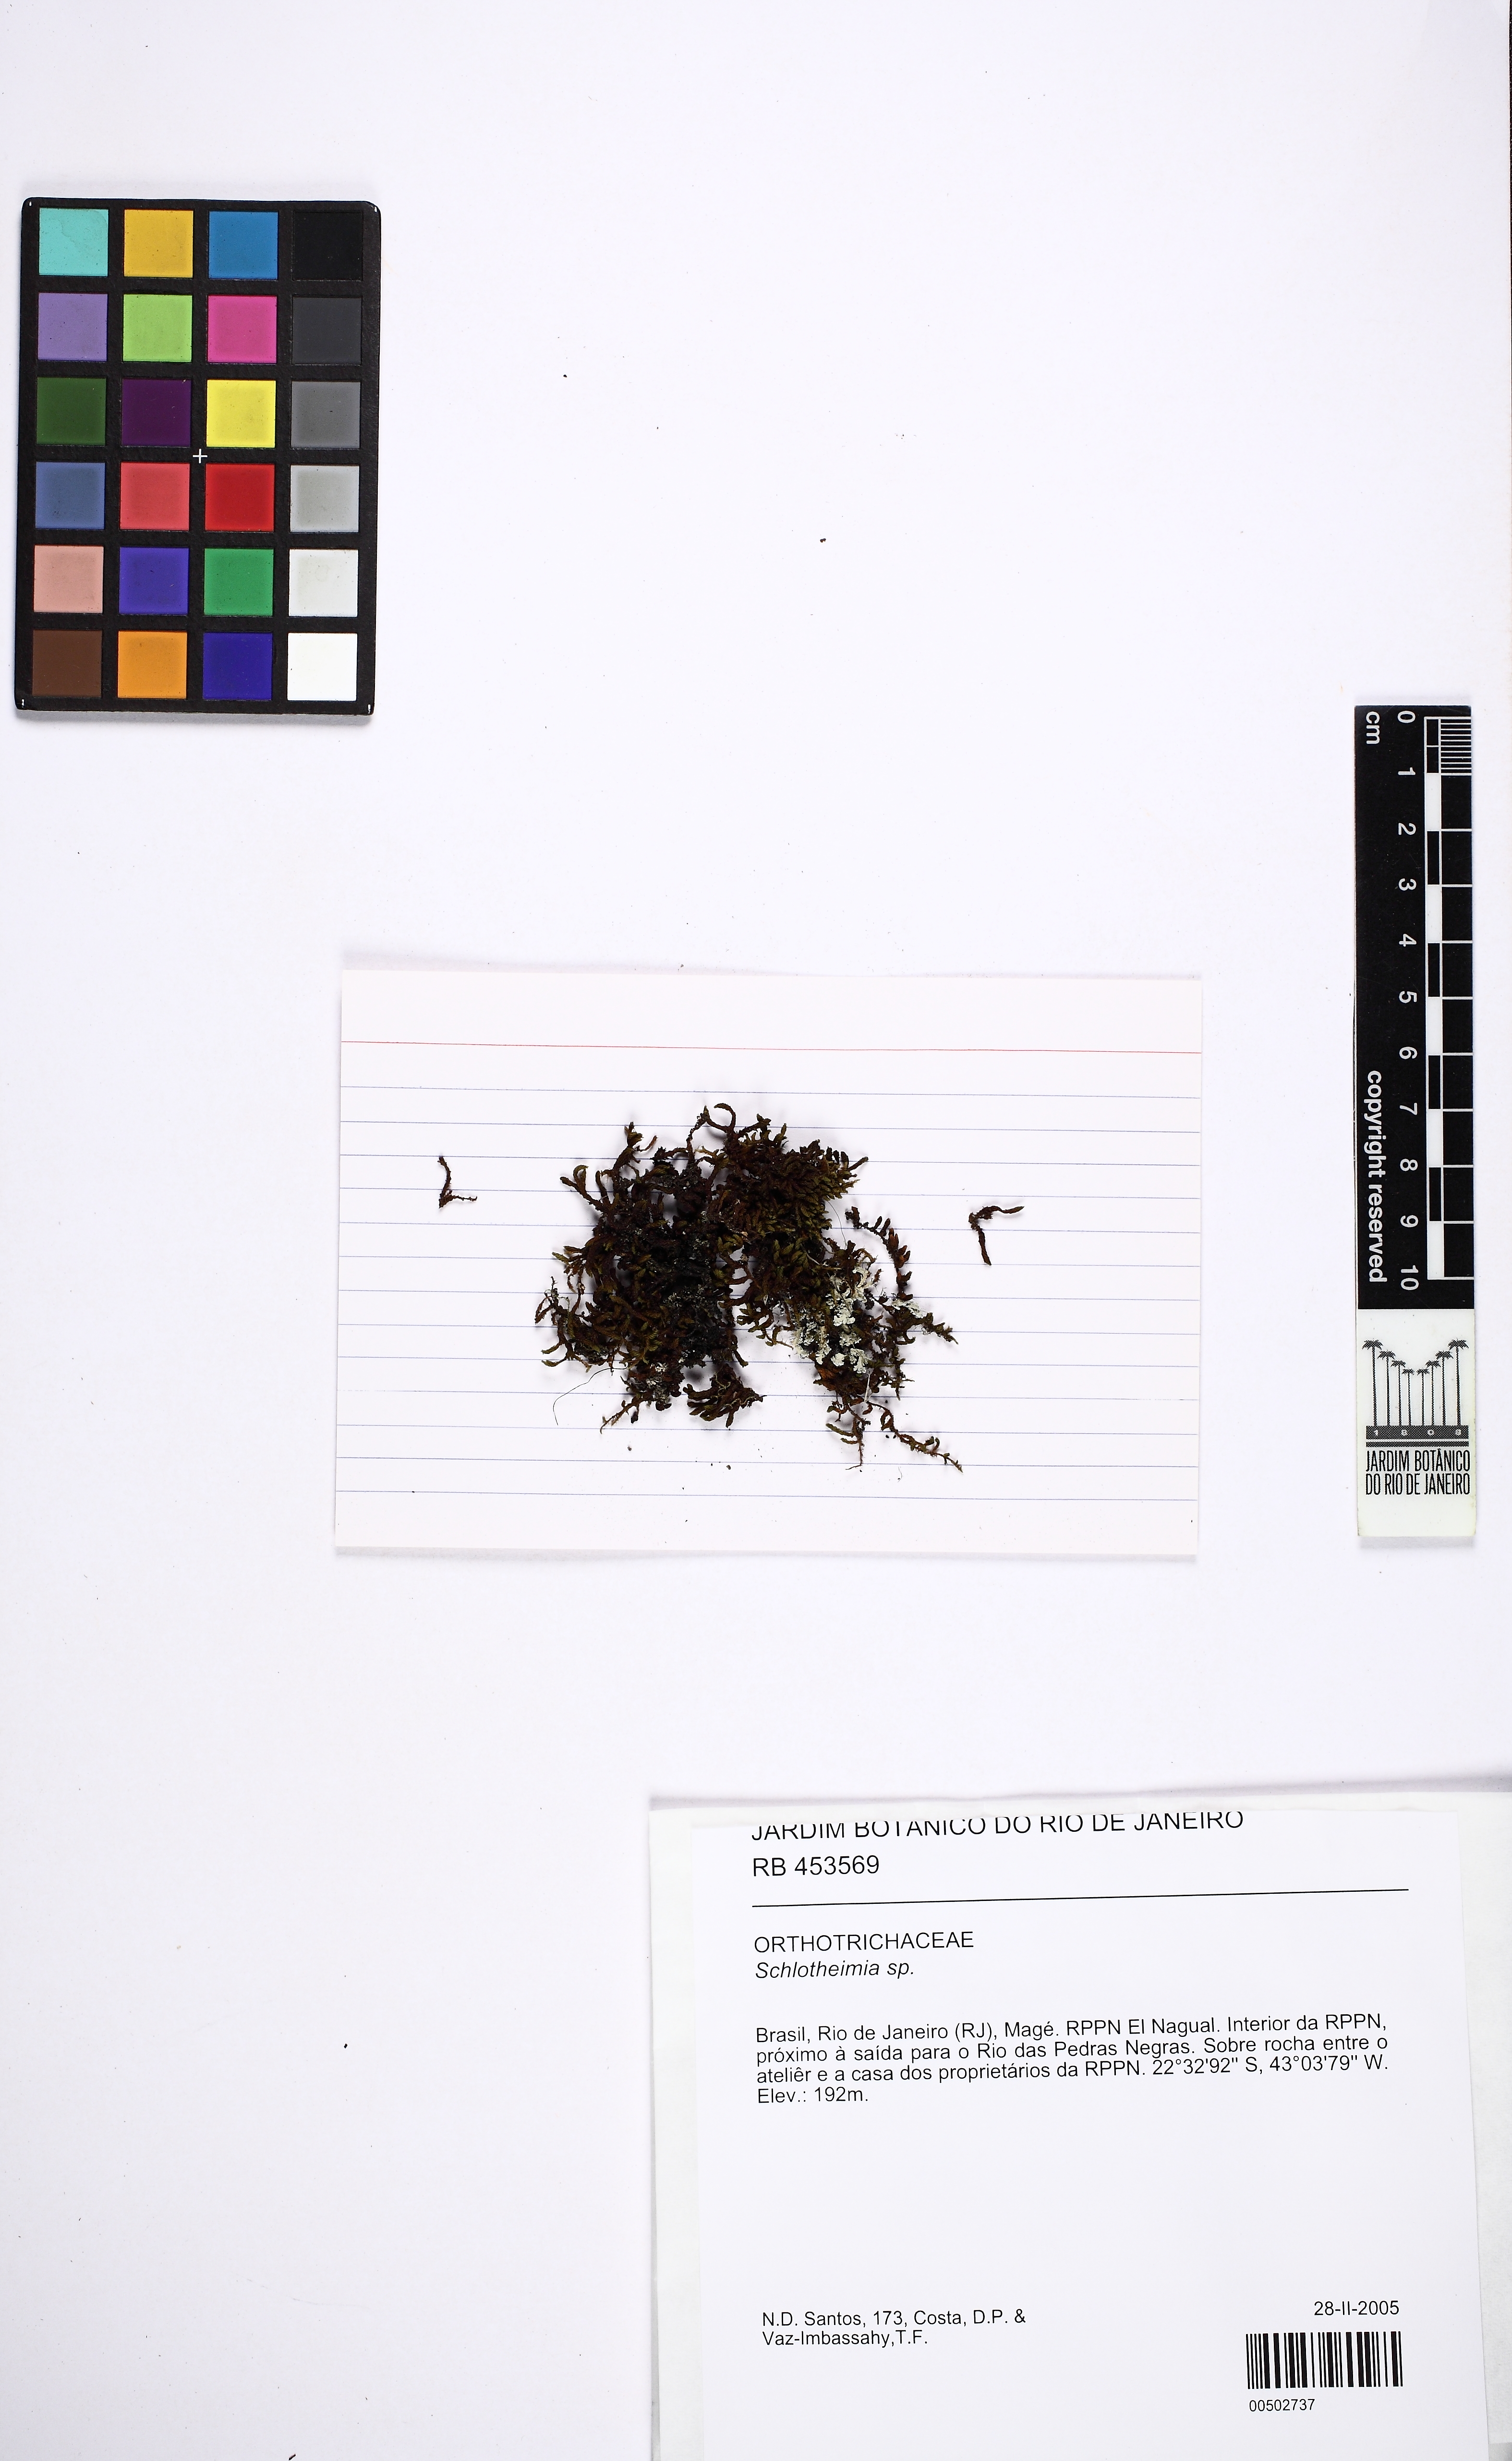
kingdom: Plantae
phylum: Bryophyta
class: Bryopsida
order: Orthotrichales
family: Orthotrichaceae
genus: Schlotheimia
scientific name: Schlotheimia
